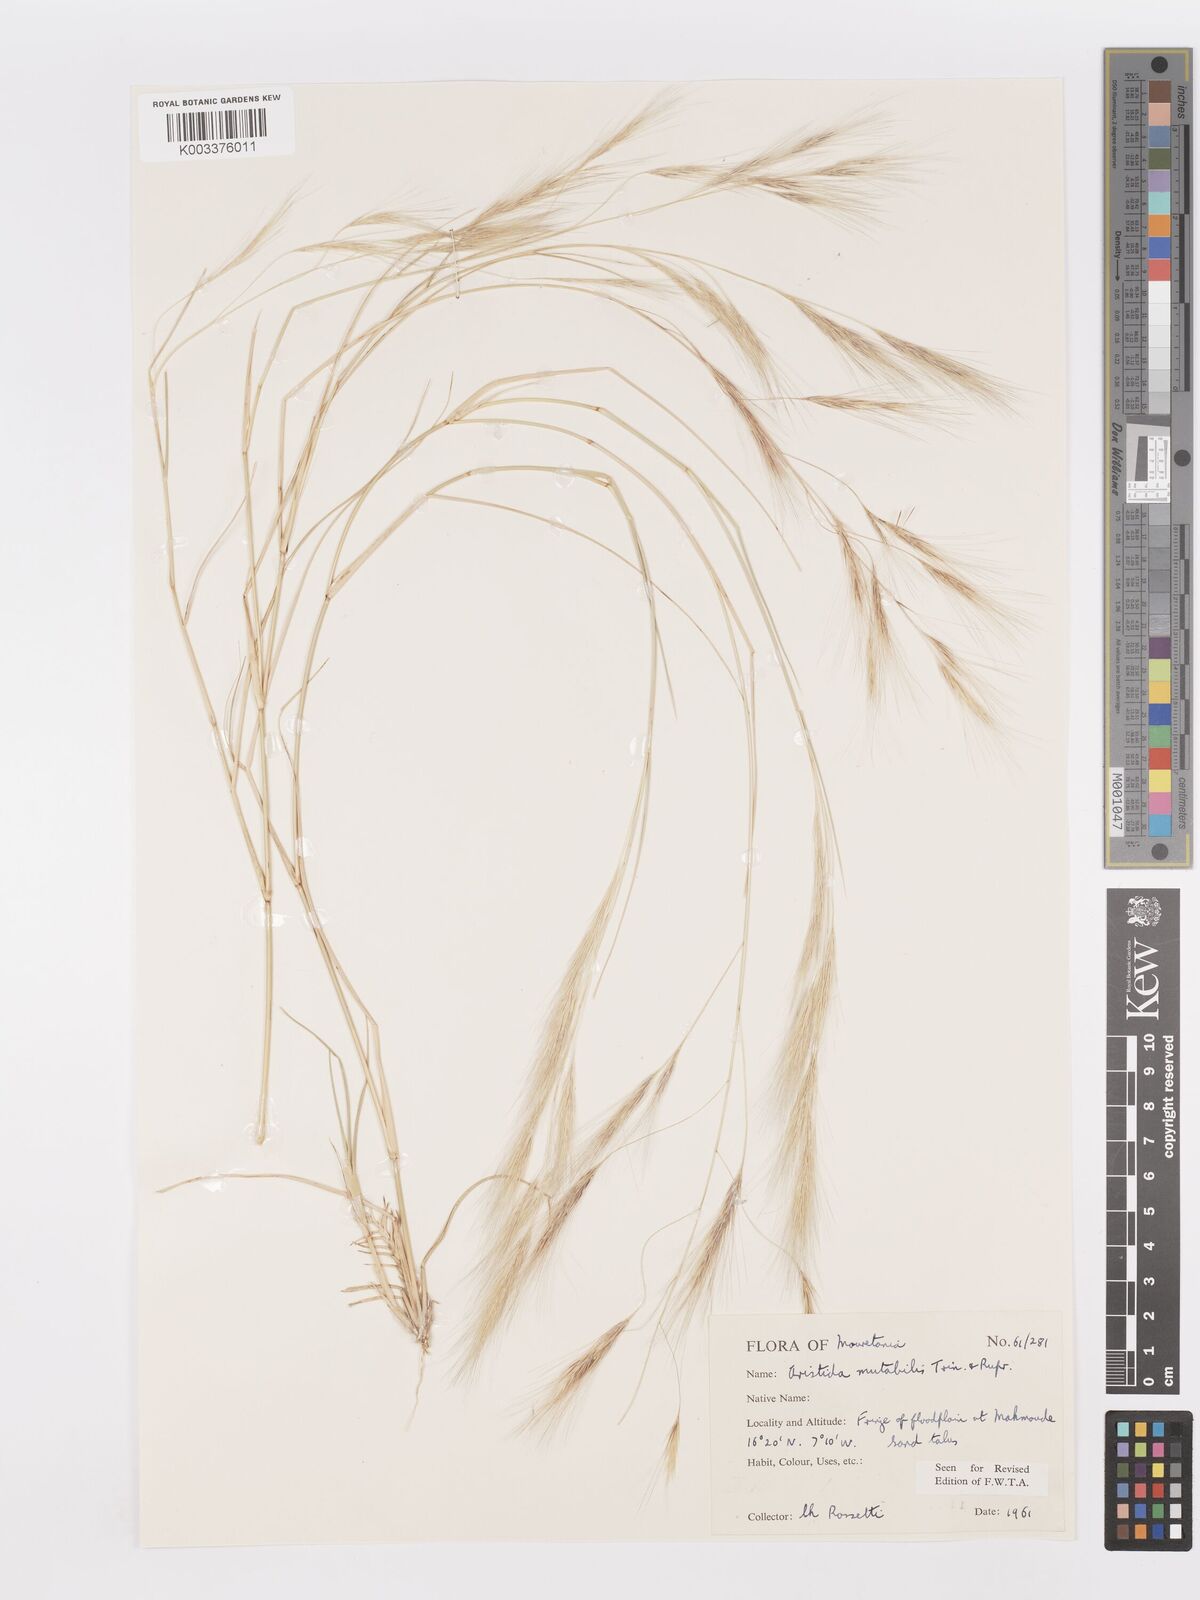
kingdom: Plantae
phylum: Tracheophyta
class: Liliopsida
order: Poales
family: Poaceae
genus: Aristida
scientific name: Aristida mutabilis
